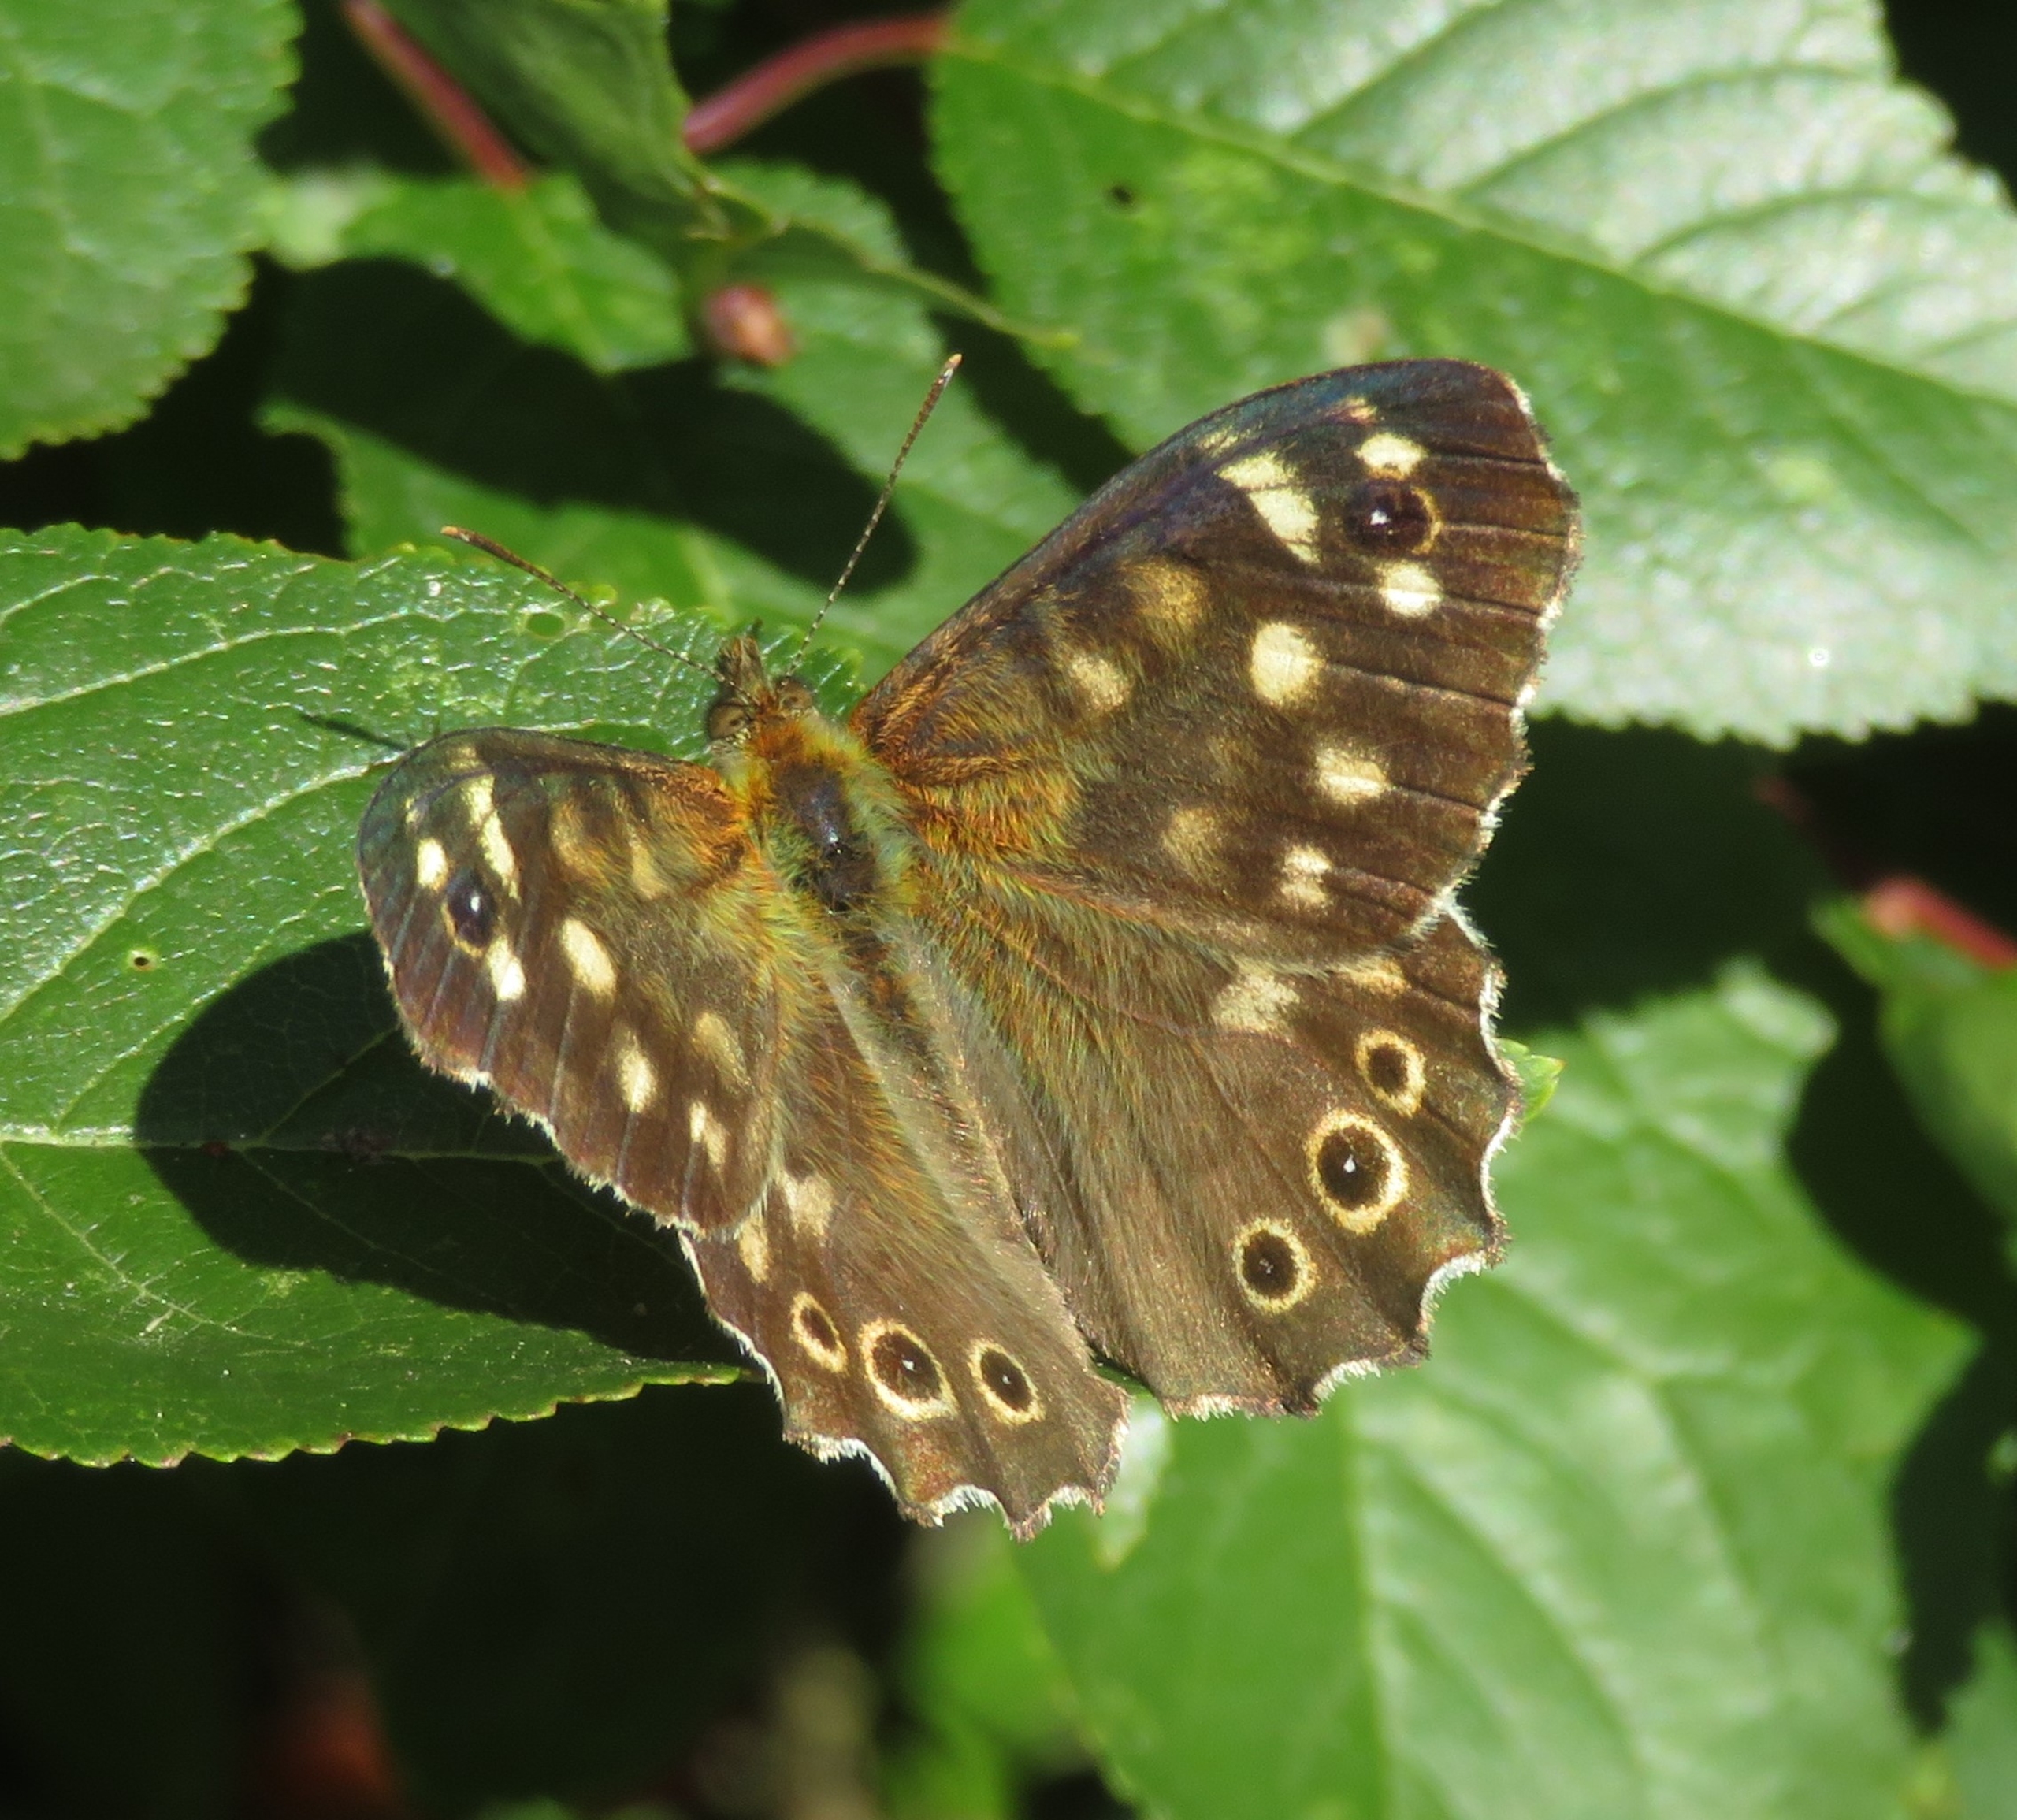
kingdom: Animalia
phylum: Arthropoda
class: Insecta
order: Lepidoptera
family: Nymphalidae
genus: Pararge
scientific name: Pararge aegeria
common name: Skovrandøje
